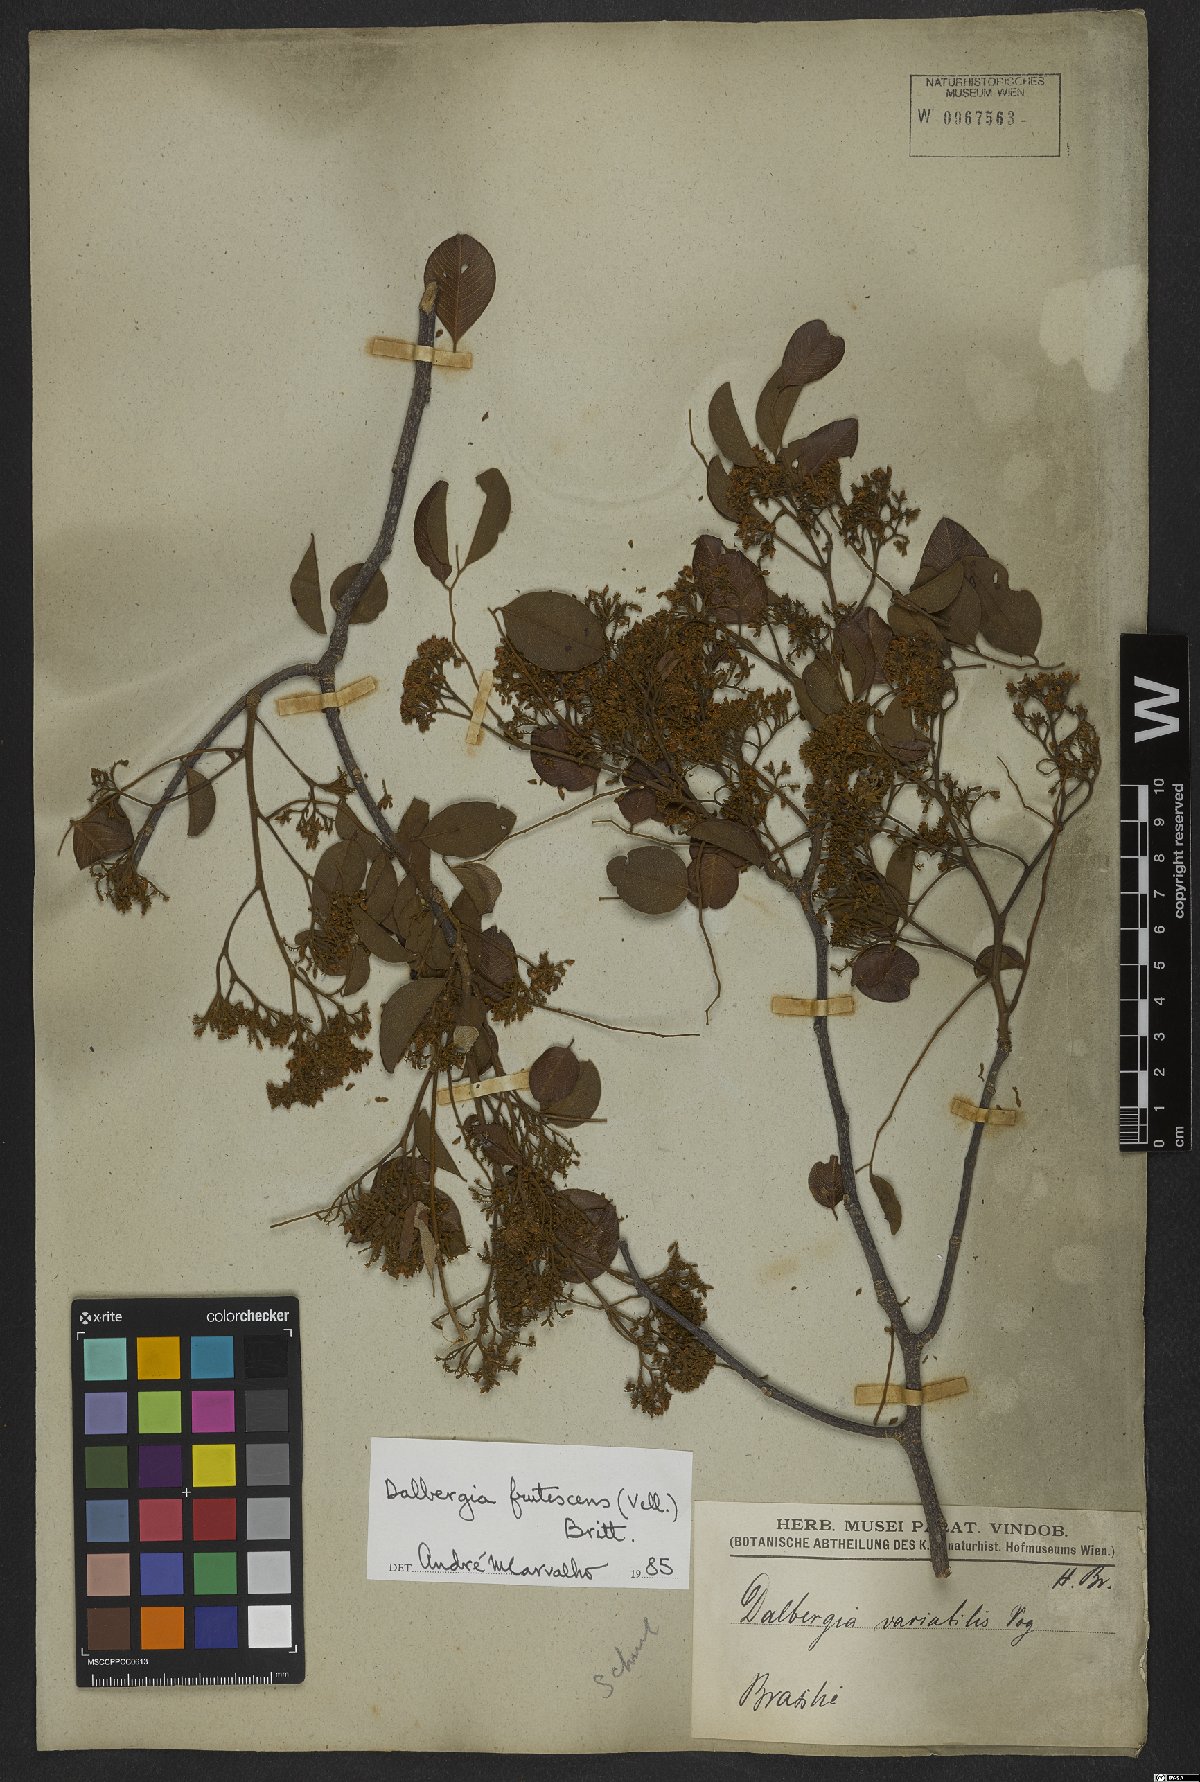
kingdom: Plantae
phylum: Tracheophyta
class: Magnoliopsida
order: Fabales
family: Fabaceae
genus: Dalbergia
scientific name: Dalbergia frutescens
